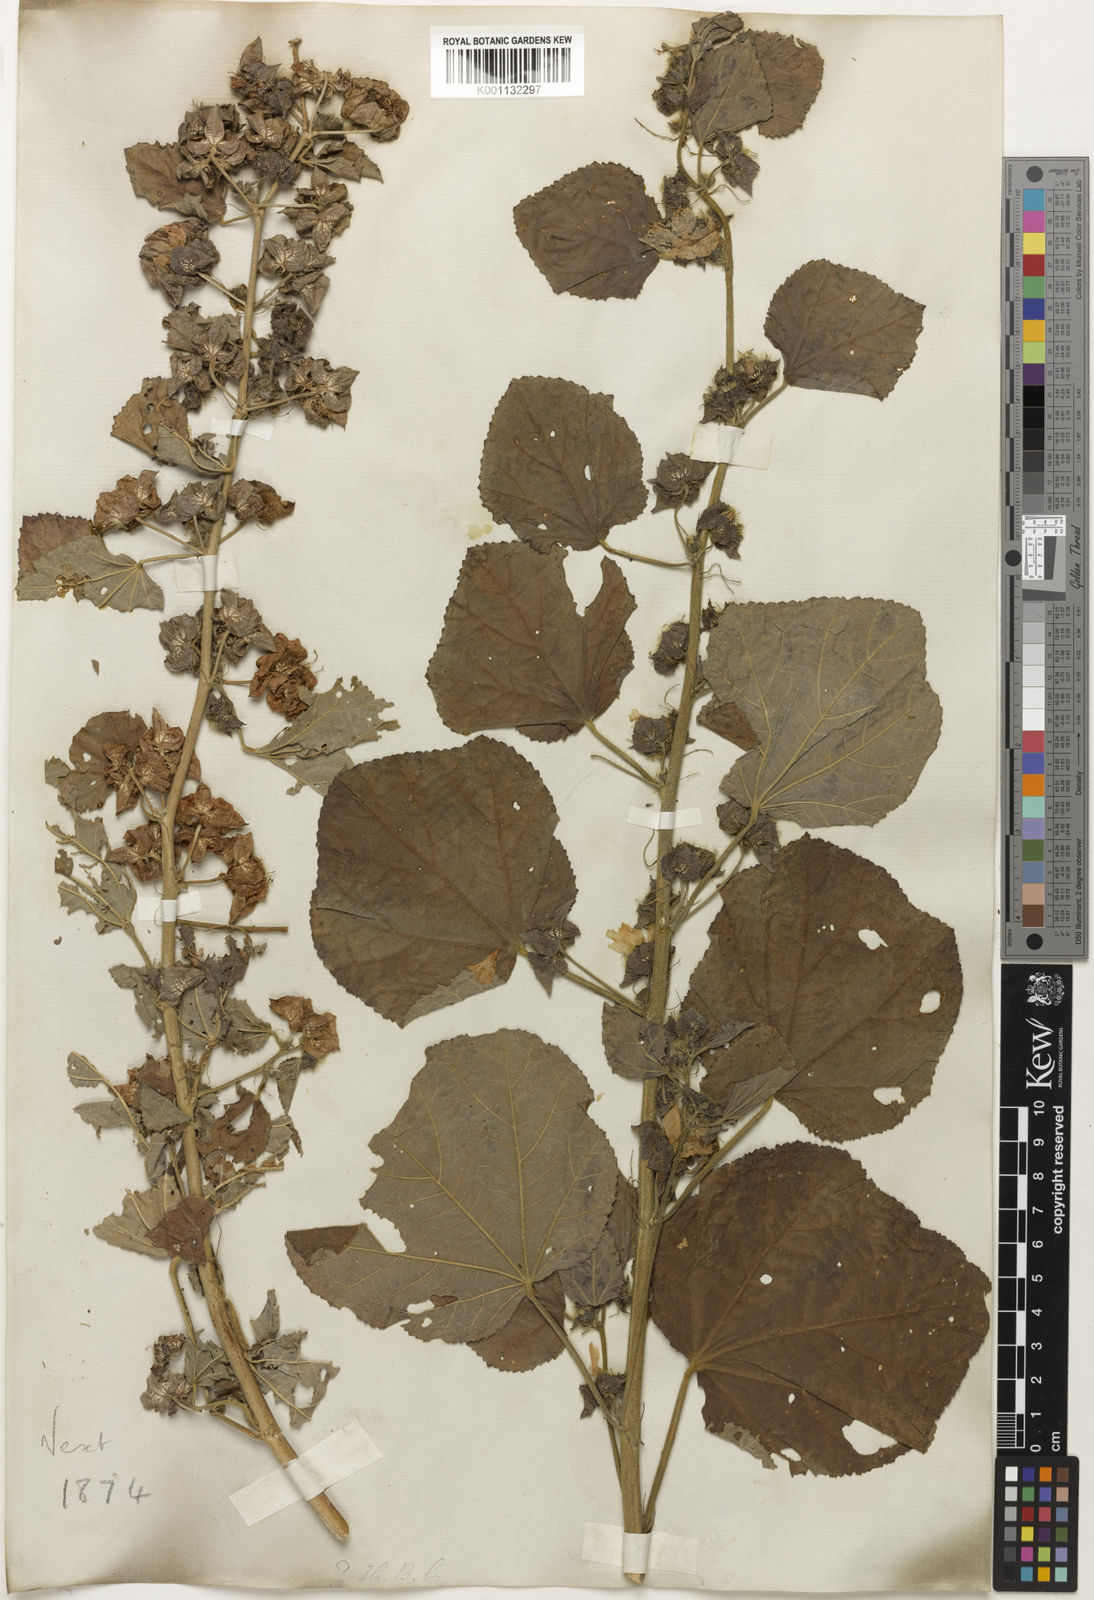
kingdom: Plantae
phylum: Tracheophyta
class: Magnoliopsida
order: Malvales
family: Malvaceae
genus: Malachra
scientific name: Malachra
